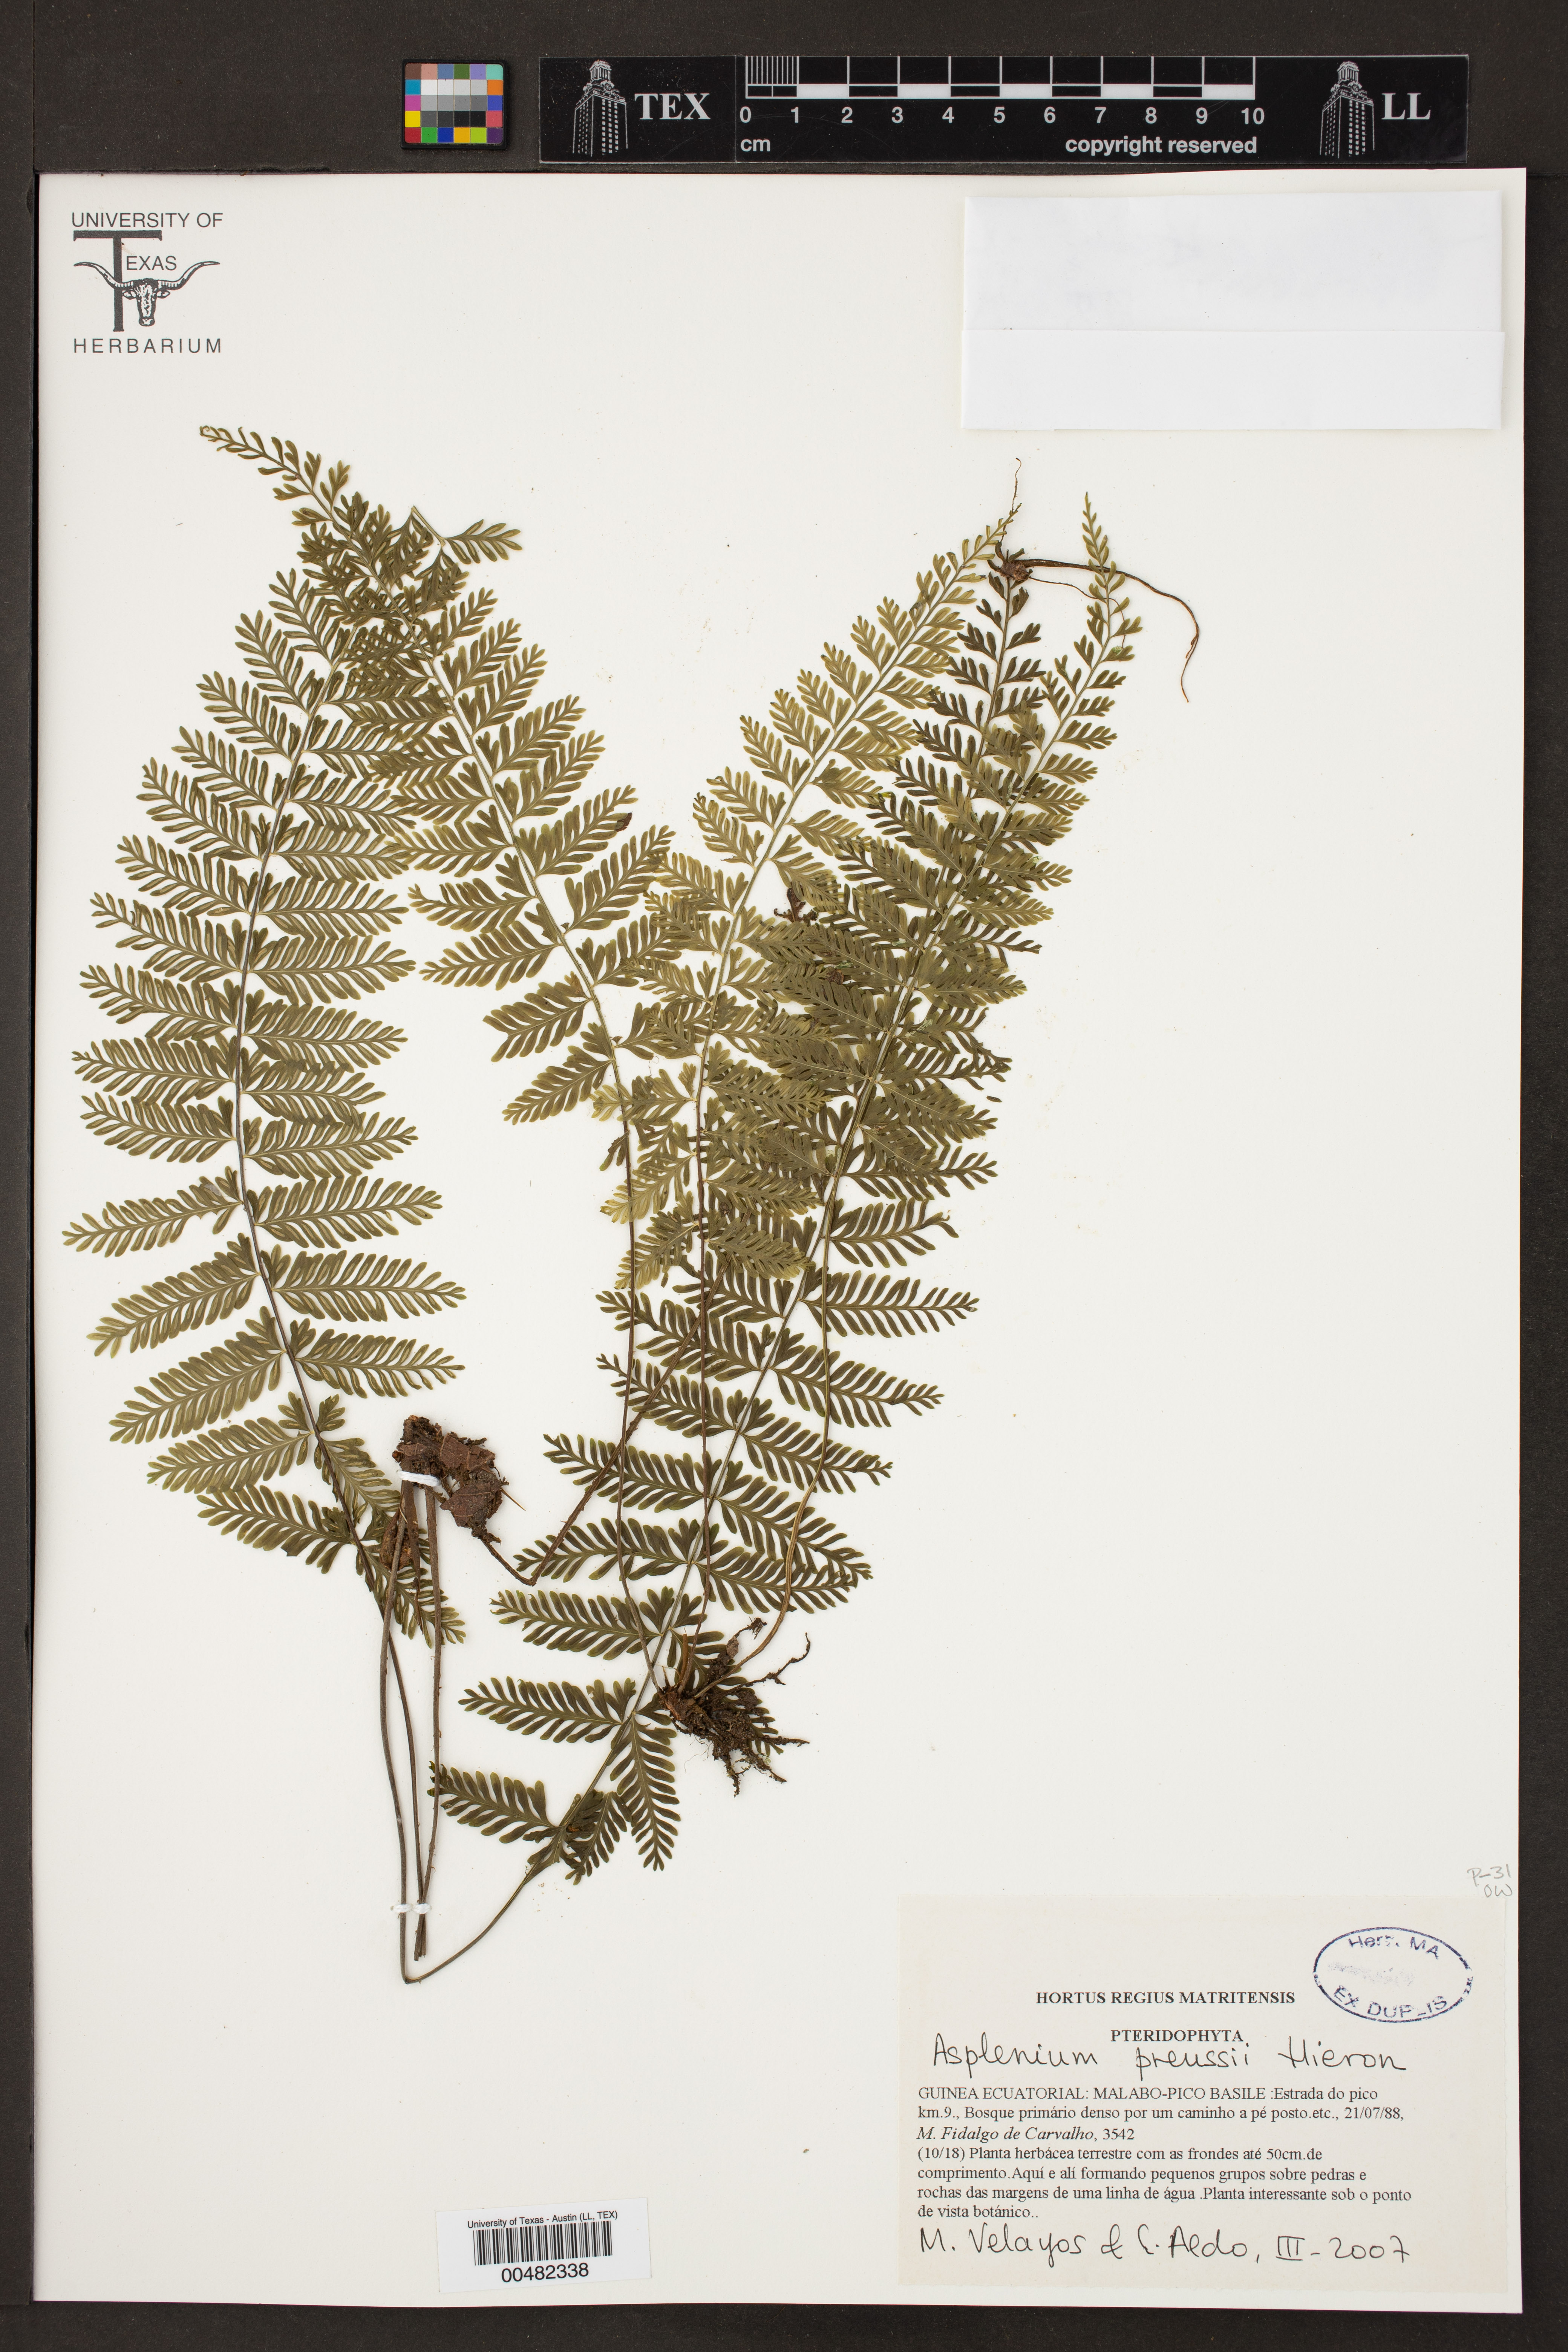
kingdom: Plantae
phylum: Tracheophyta
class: Polypodiopsida
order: Polypodiales
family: Aspleniaceae
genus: Asplenium
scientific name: Asplenium preussii
